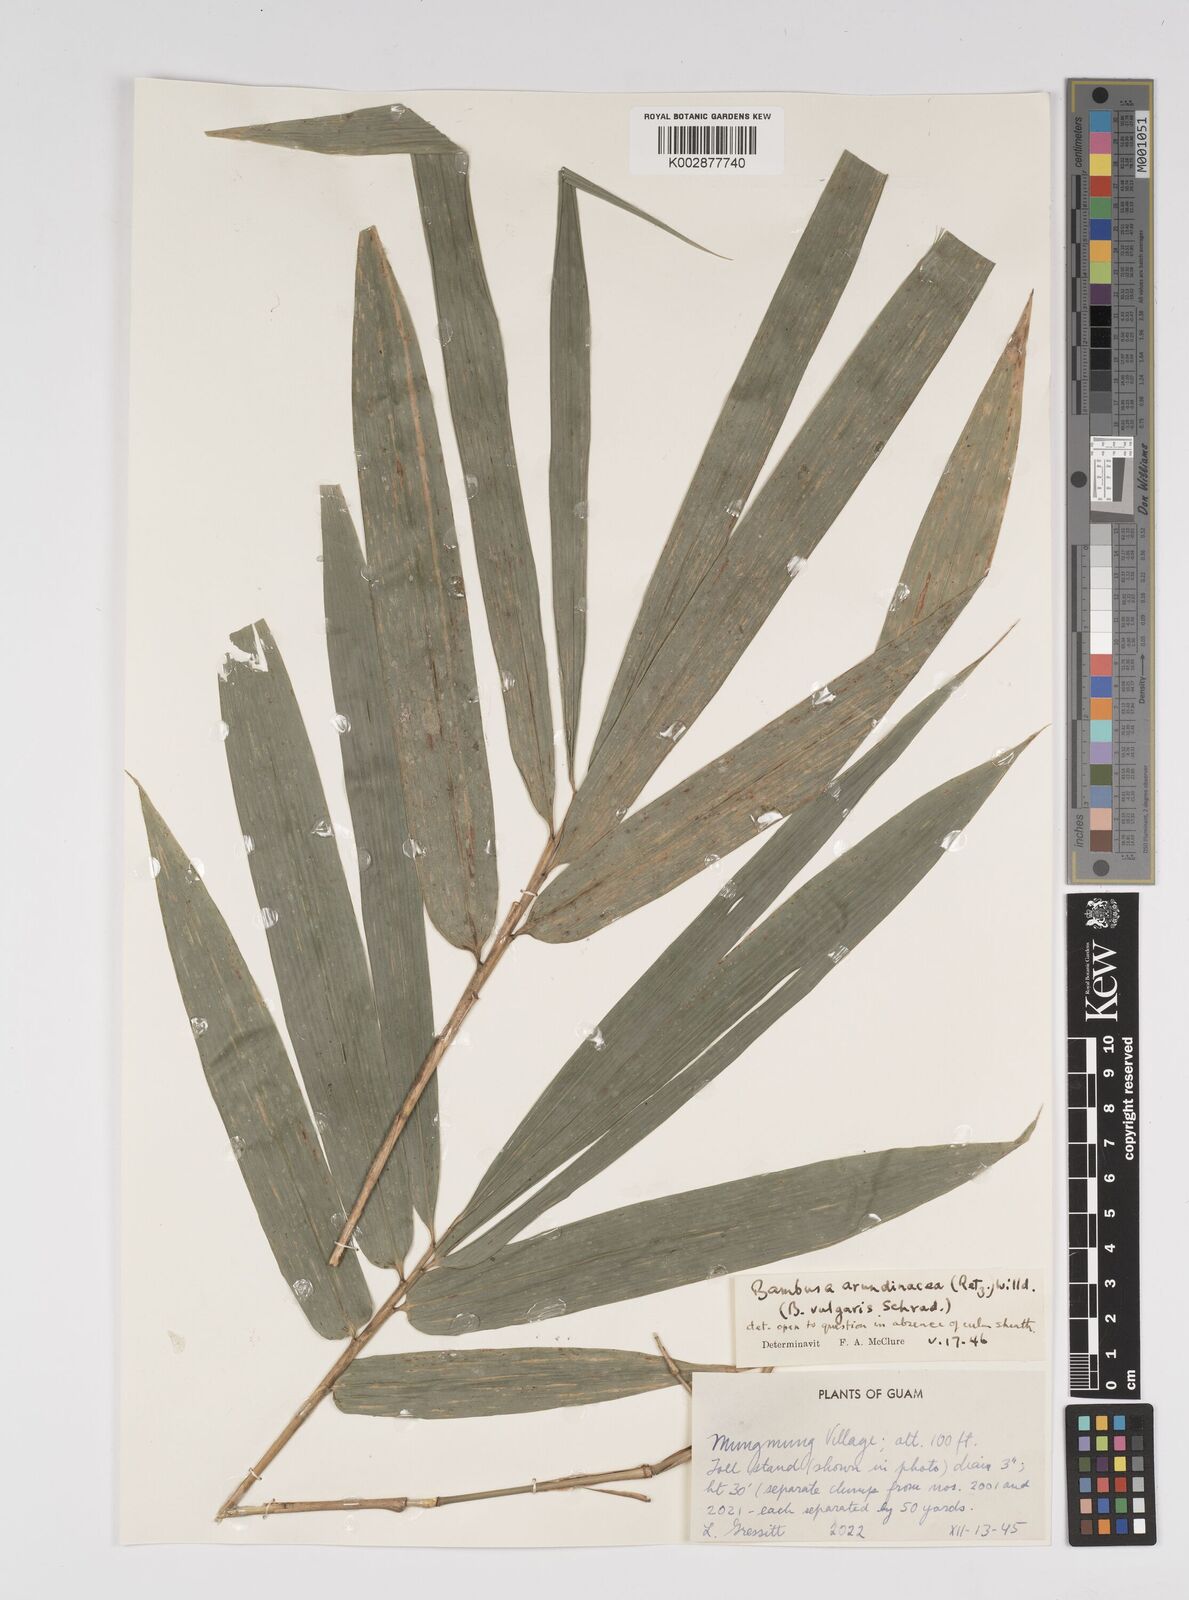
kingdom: Plantae
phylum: Tracheophyta
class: Liliopsida
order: Poales
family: Poaceae
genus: Bambusa
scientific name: Bambusa vulgaris
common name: Common bamboo
